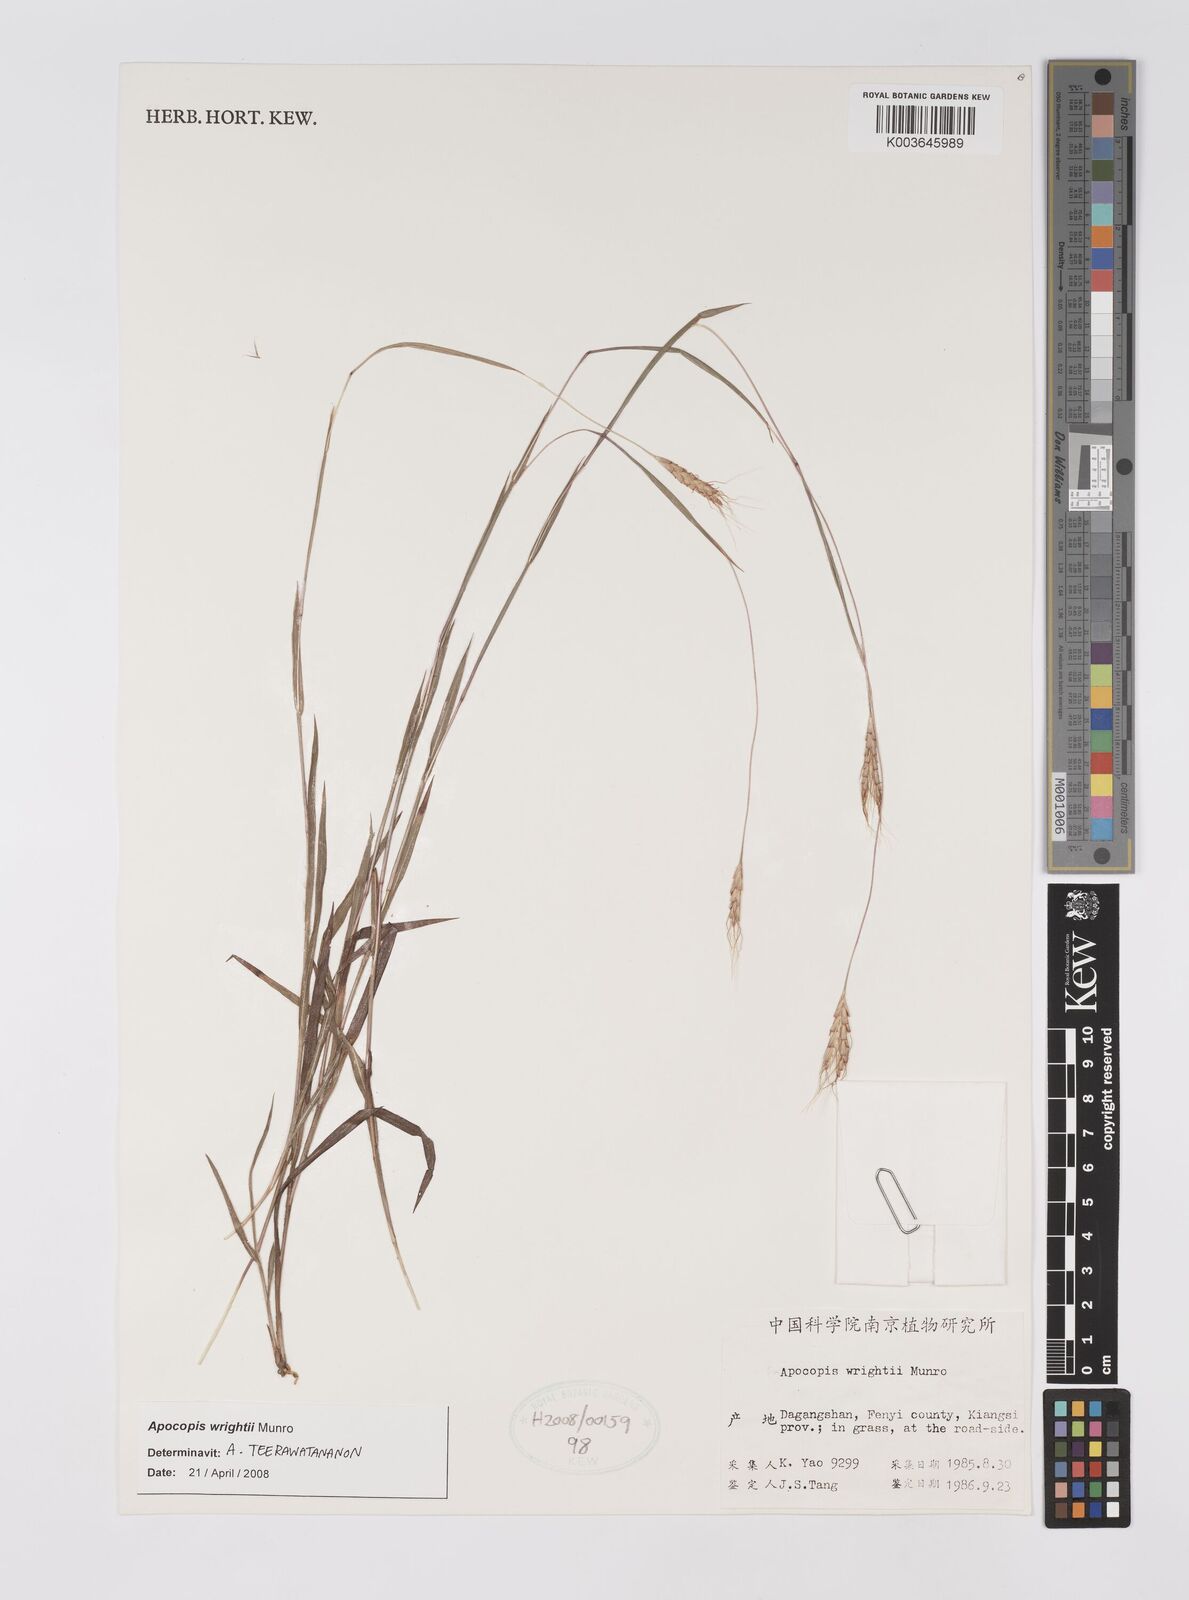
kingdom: Plantae
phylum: Tracheophyta
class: Liliopsida
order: Poales
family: Poaceae
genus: Apocopis
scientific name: Apocopis wrightii
